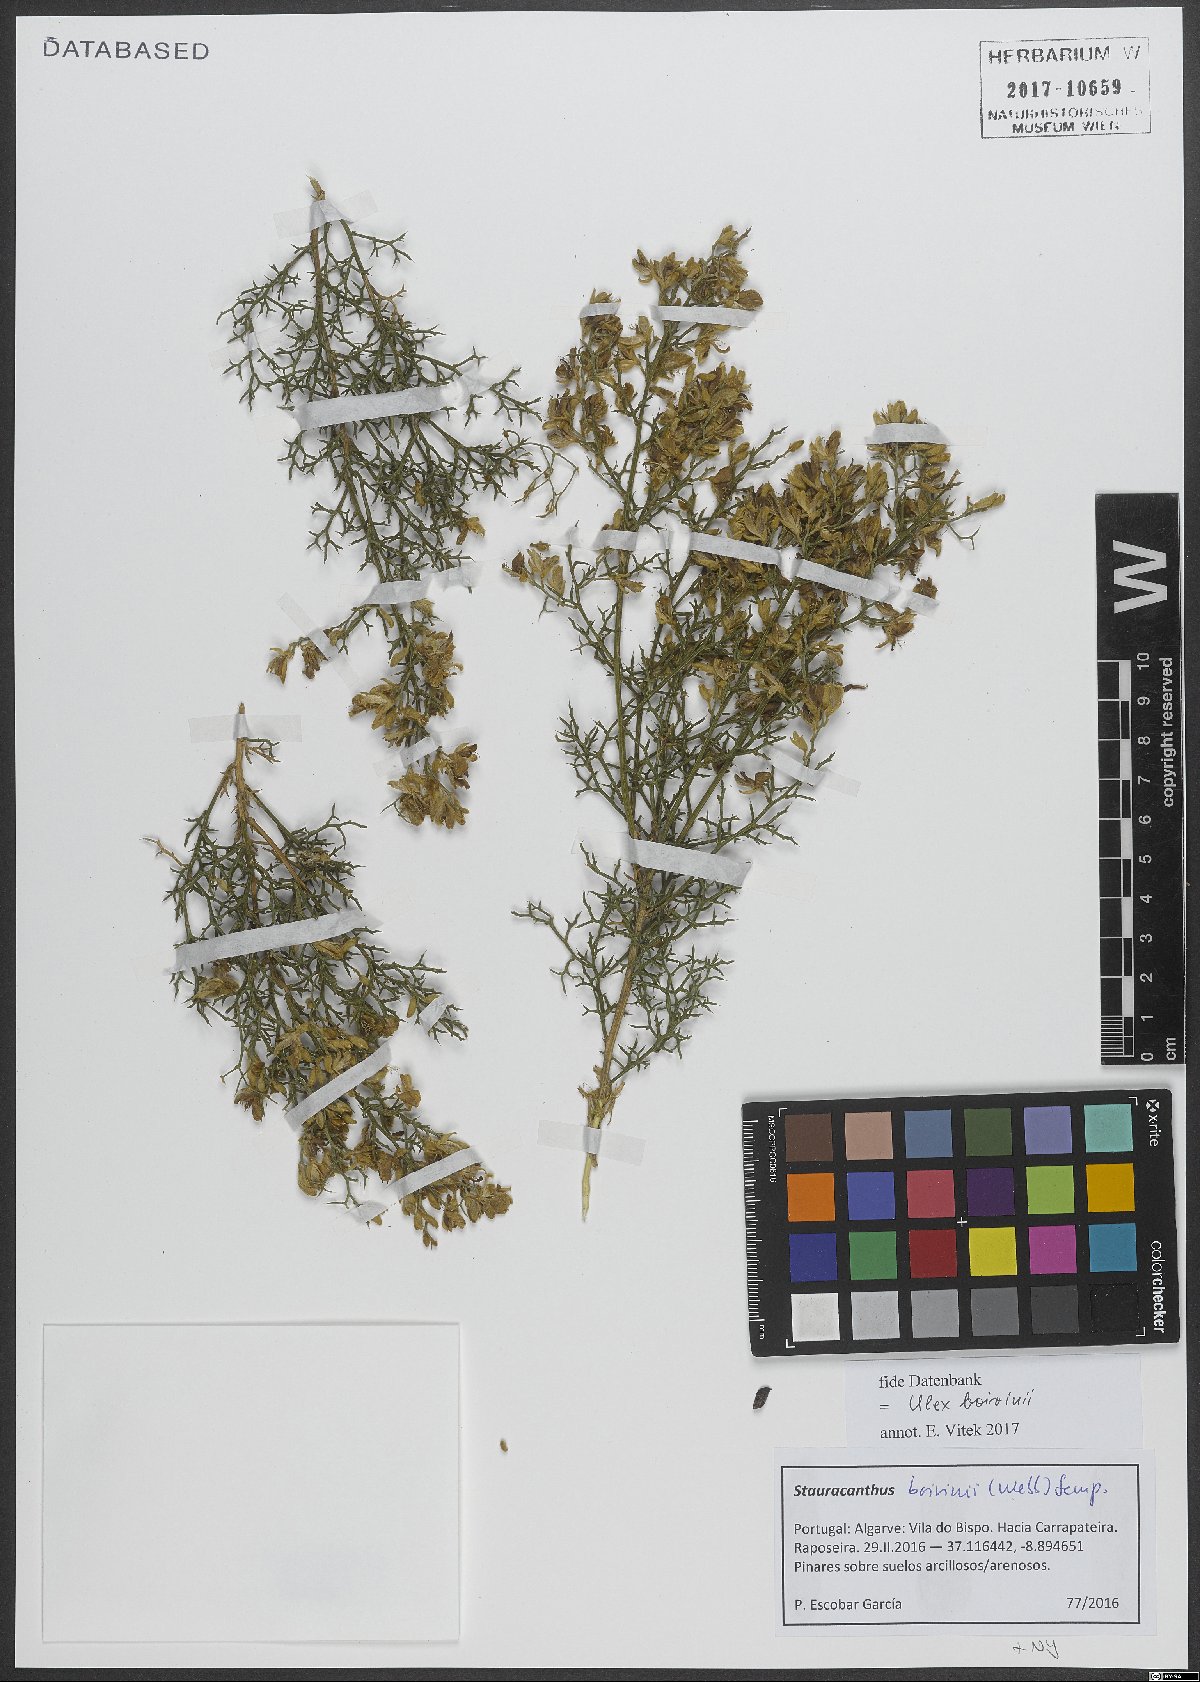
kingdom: Plantae
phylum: Tracheophyta
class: Magnoliopsida
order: Fabales
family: Fabaceae
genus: Stauracanthus
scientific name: Stauracanthus boivinii
